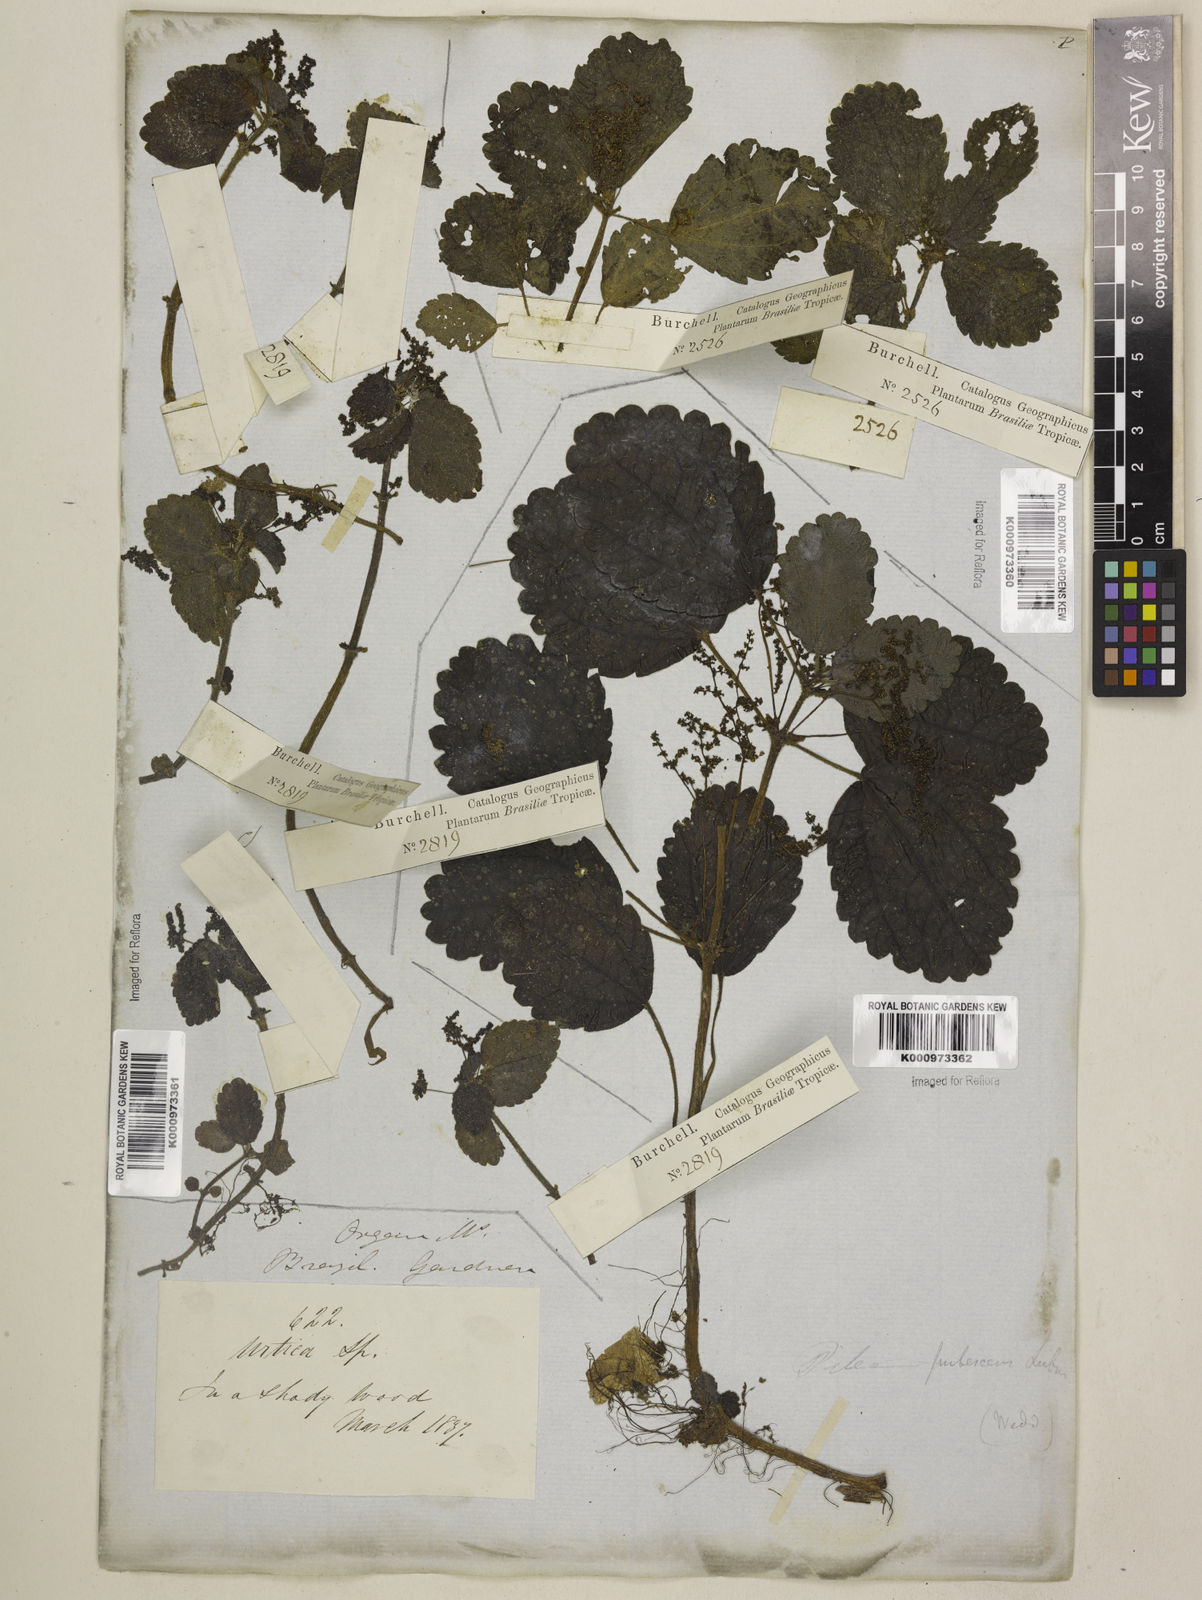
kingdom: Plantae
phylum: Tracheophyta
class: Magnoliopsida
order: Rosales
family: Urticaceae
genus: Pilea
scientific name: Pilea
